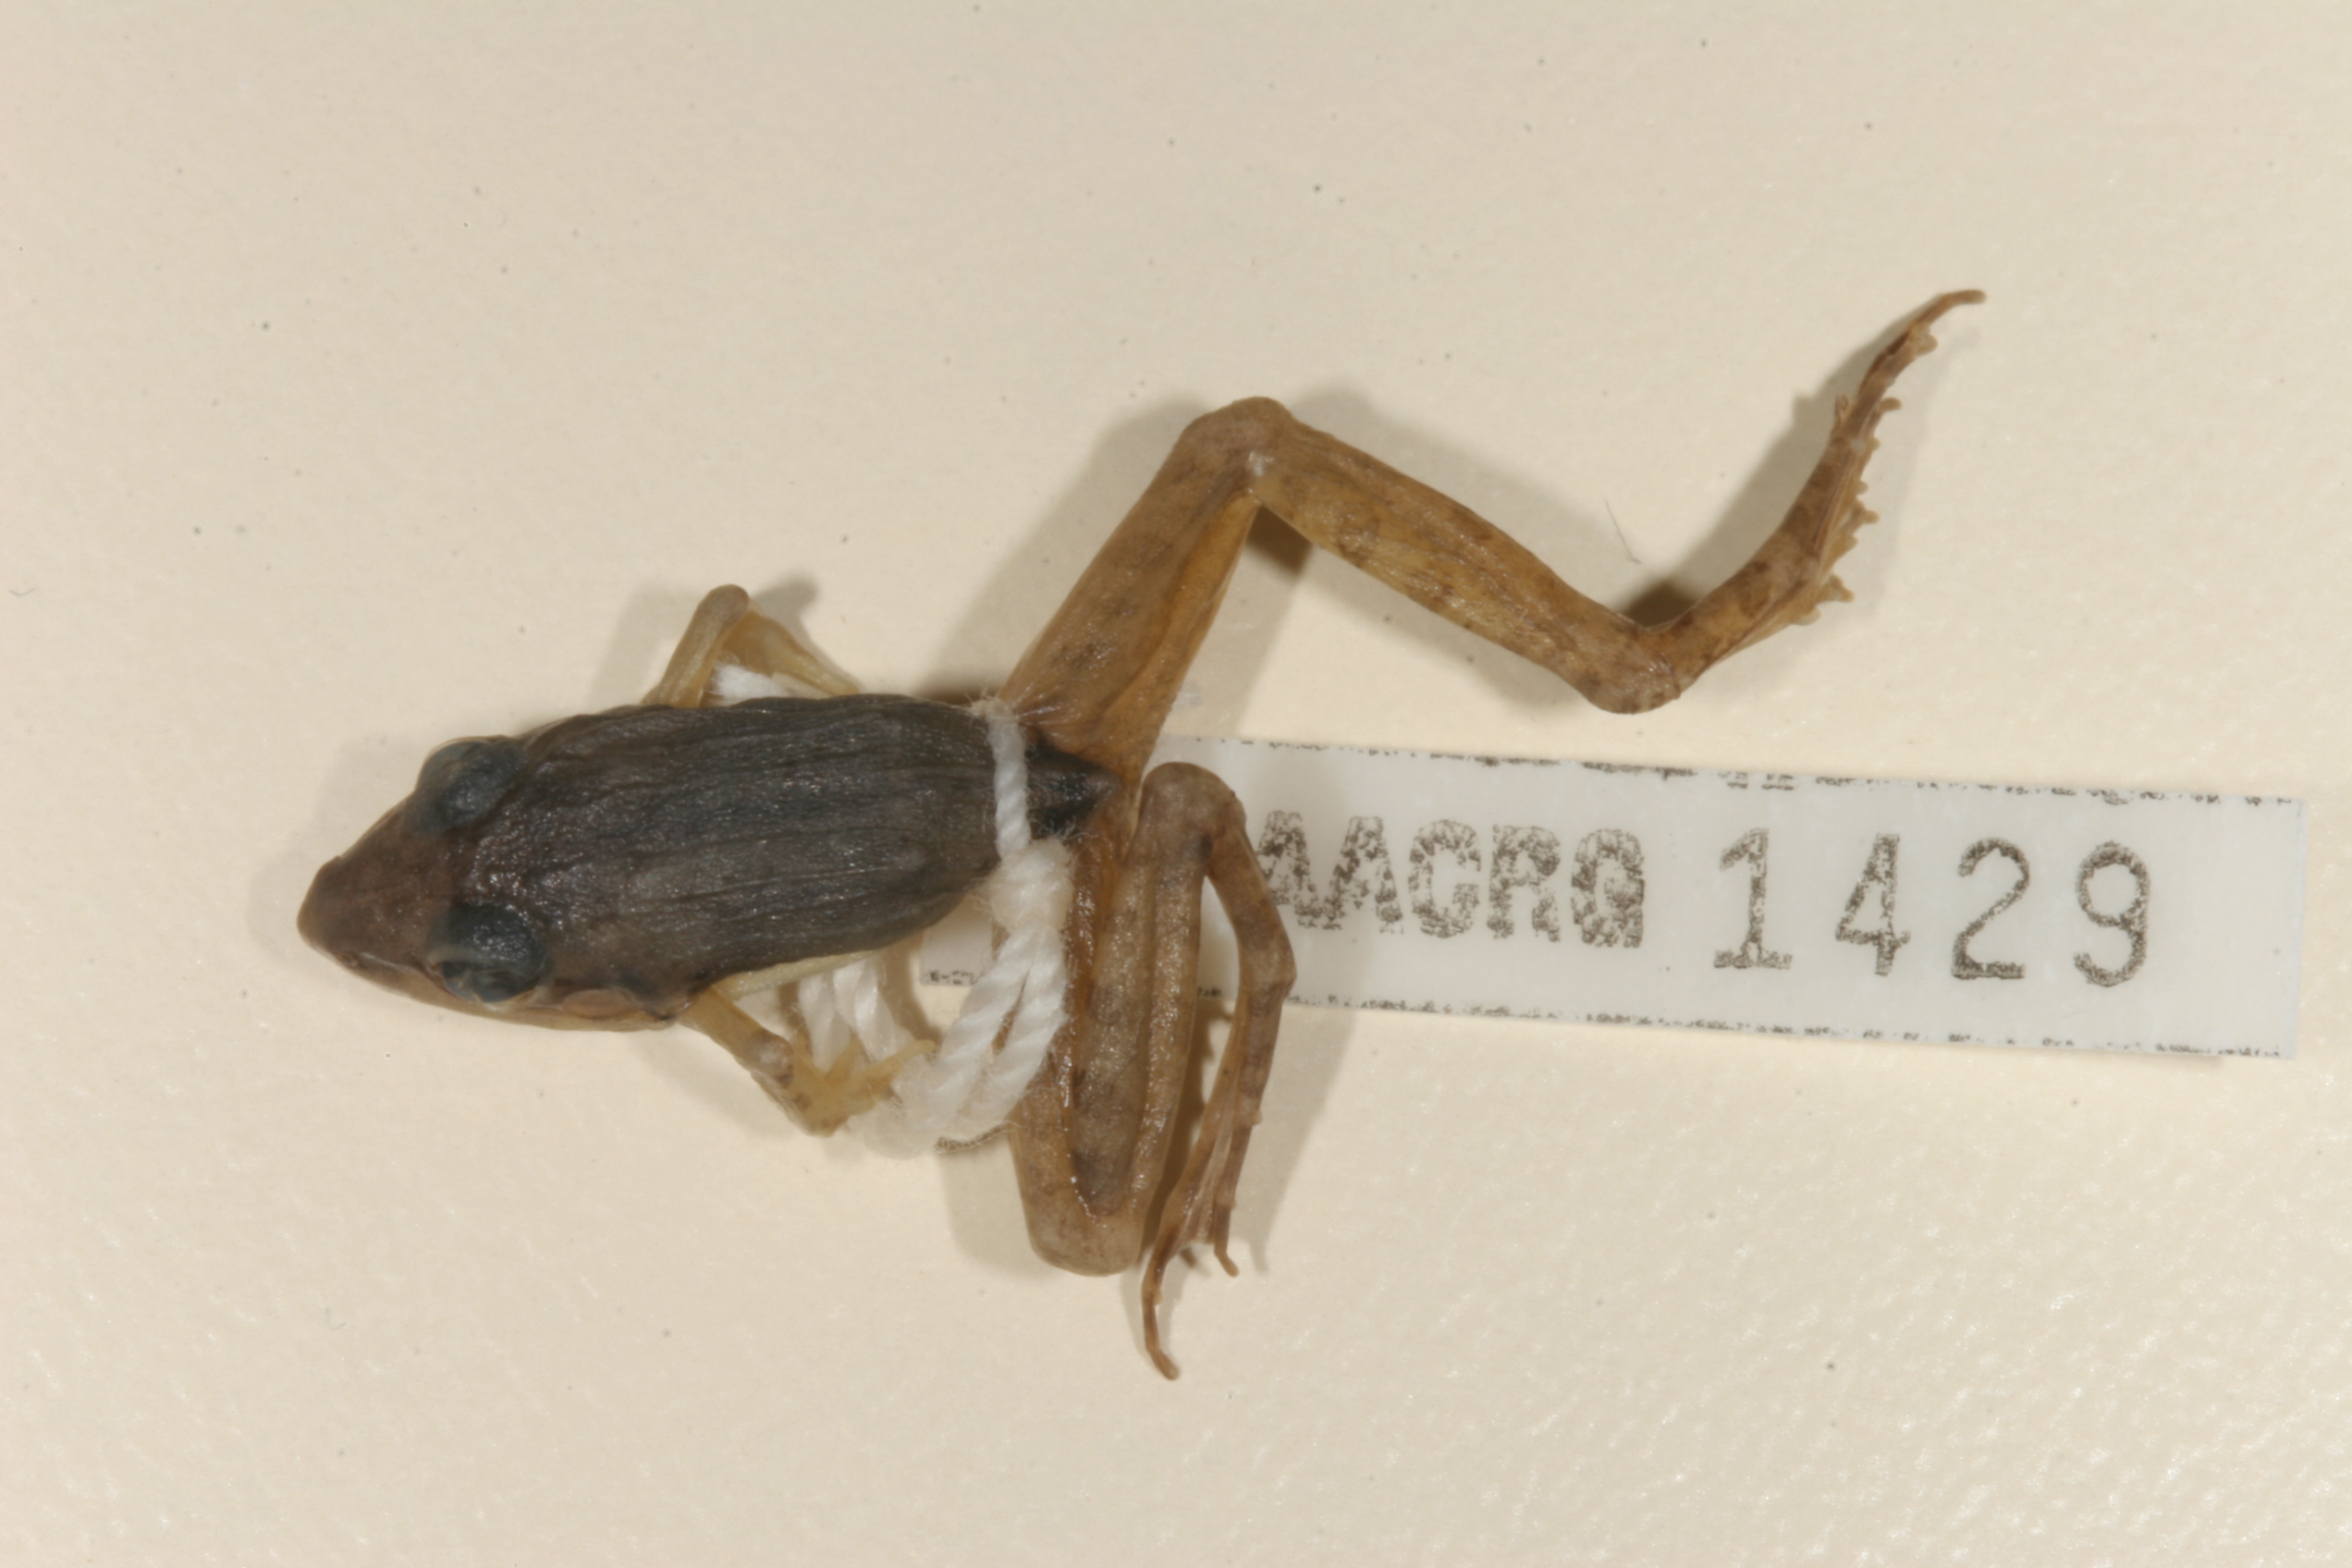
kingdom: Animalia
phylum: Chordata
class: Amphibia
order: Anura
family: Ptychadenidae
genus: Ptychadena
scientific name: Ptychadena anchietae
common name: Anchieta's ridged frog
